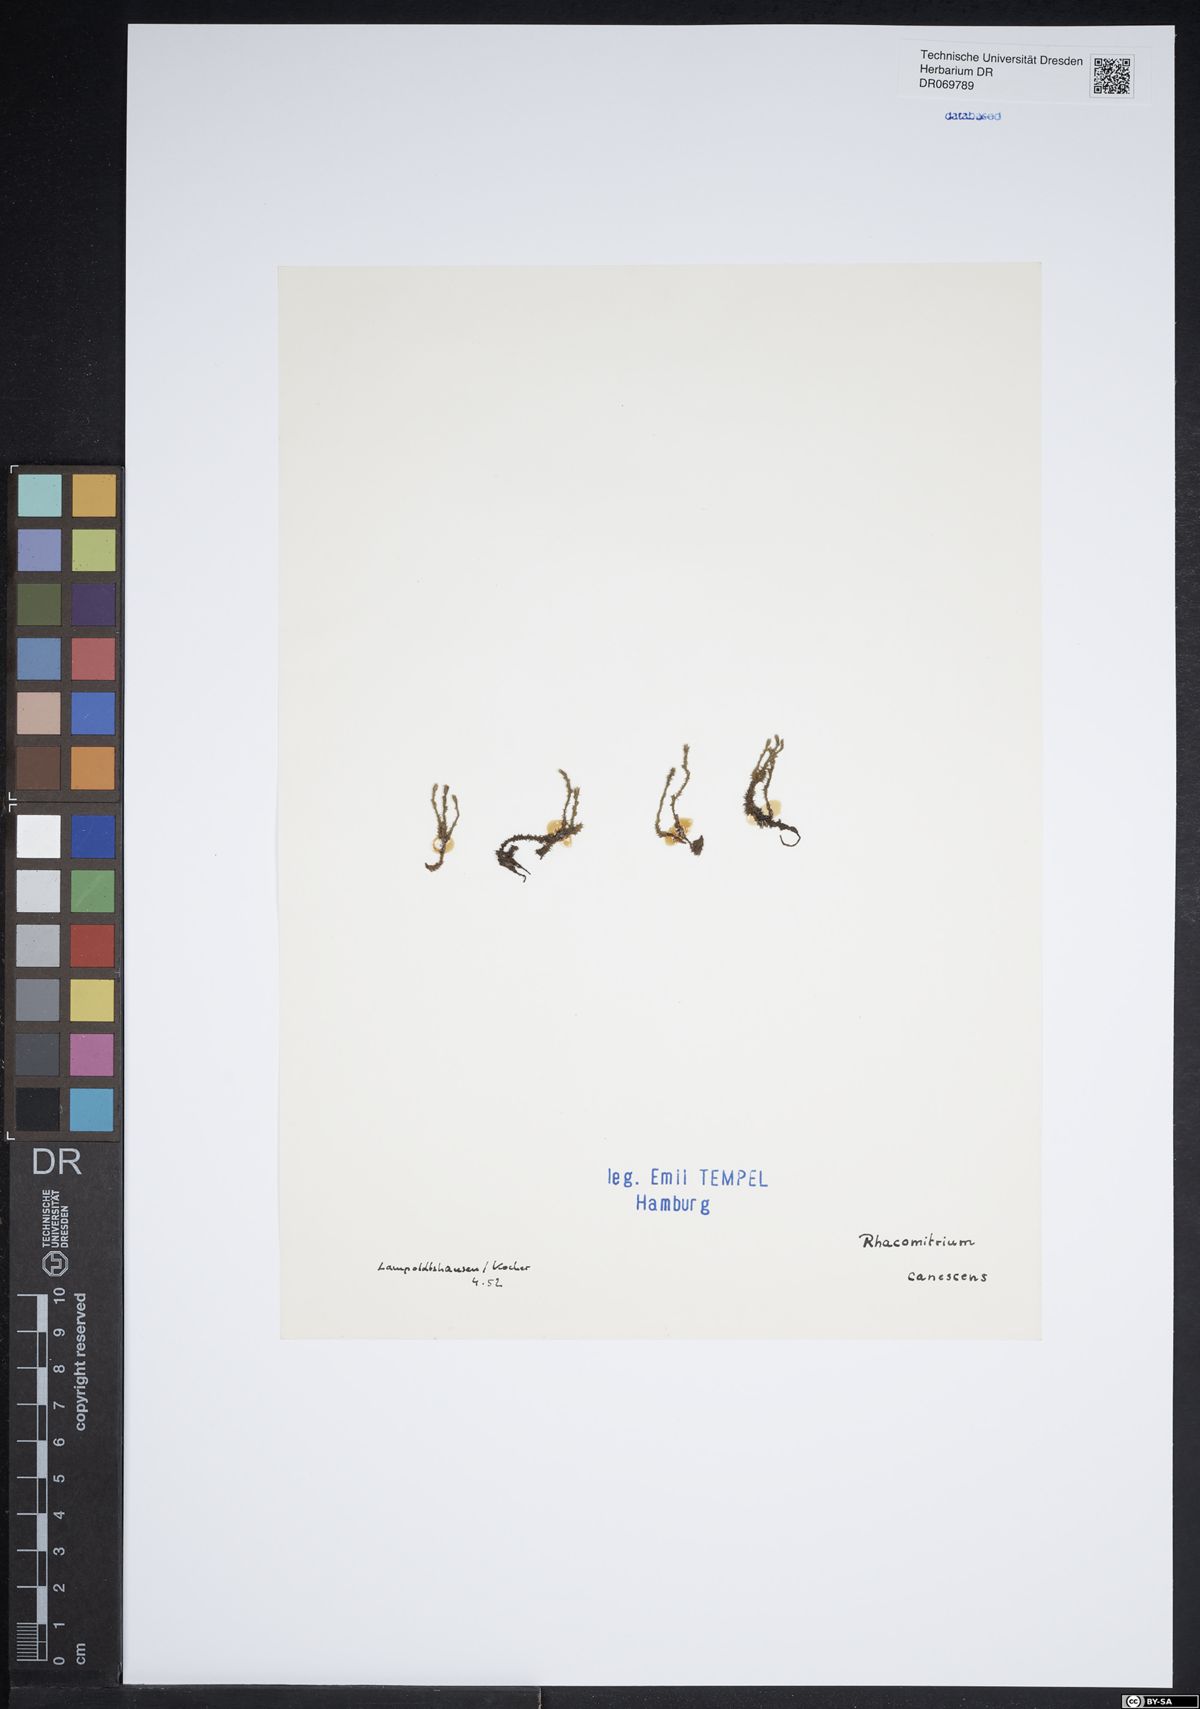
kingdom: Plantae
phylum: Bryophyta
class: Bryopsida
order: Grimmiales
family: Grimmiaceae
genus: Niphotrichum
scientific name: Niphotrichum canescens
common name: Hoary fringe-moss
